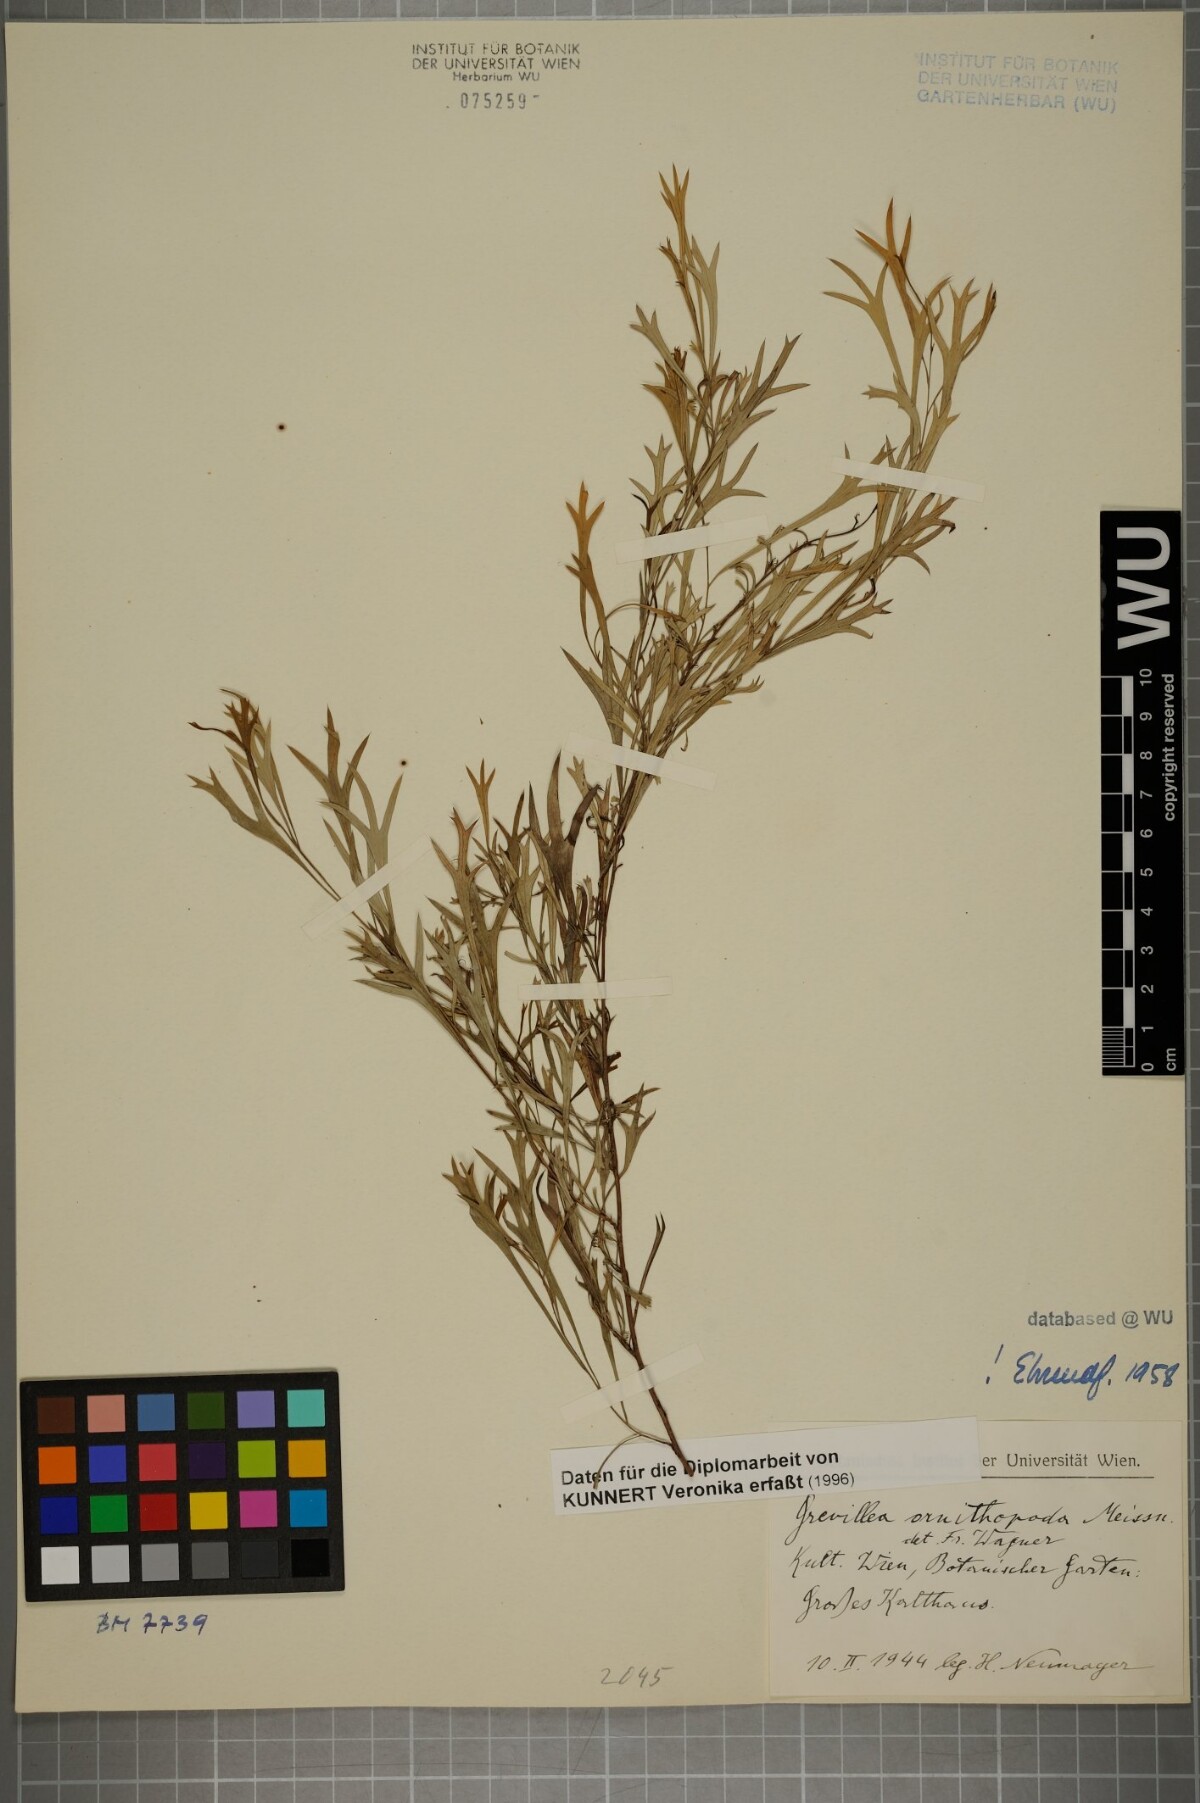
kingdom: Plantae
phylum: Tracheophyta
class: Magnoliopsida
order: Proteales
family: Proteaceae
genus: Grevillea
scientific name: Grevillea manglesii
